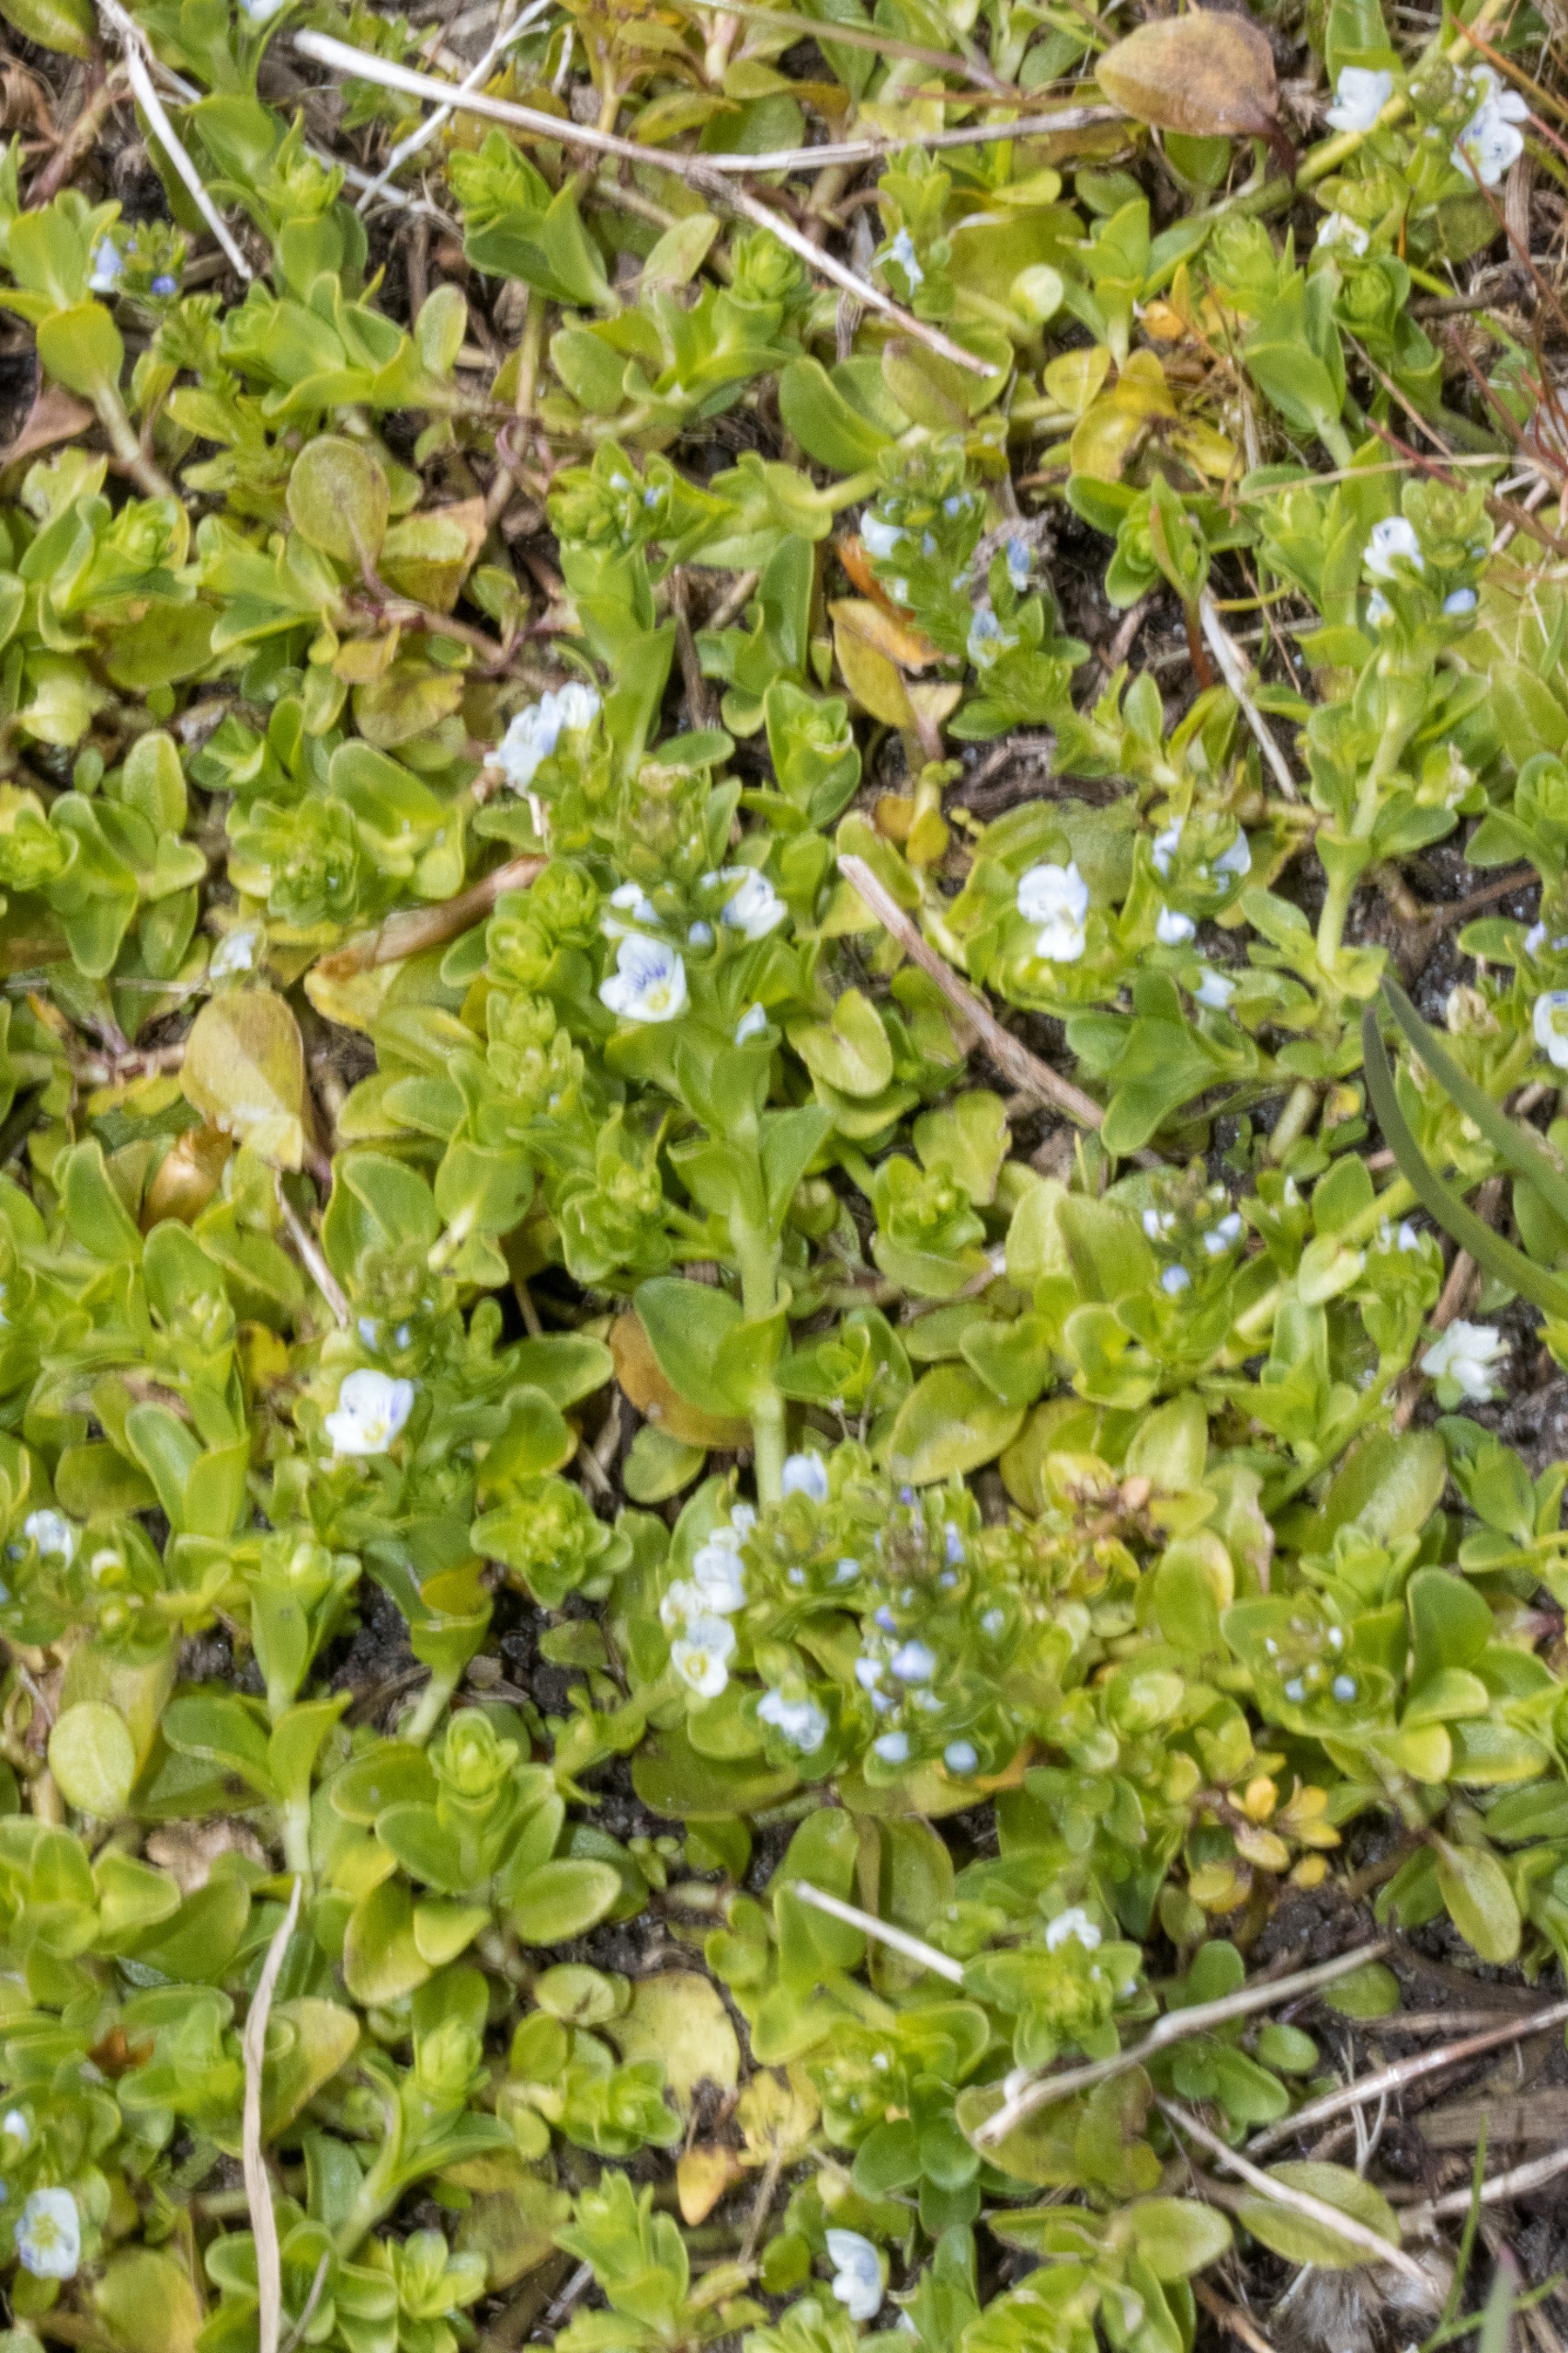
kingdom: Plantae
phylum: Tracheophyta
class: Magnoliopsida
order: Lamiales
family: Plantaginaceae
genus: Veronica
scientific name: Veronica serpyllifolia
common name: Glat ærenpris
